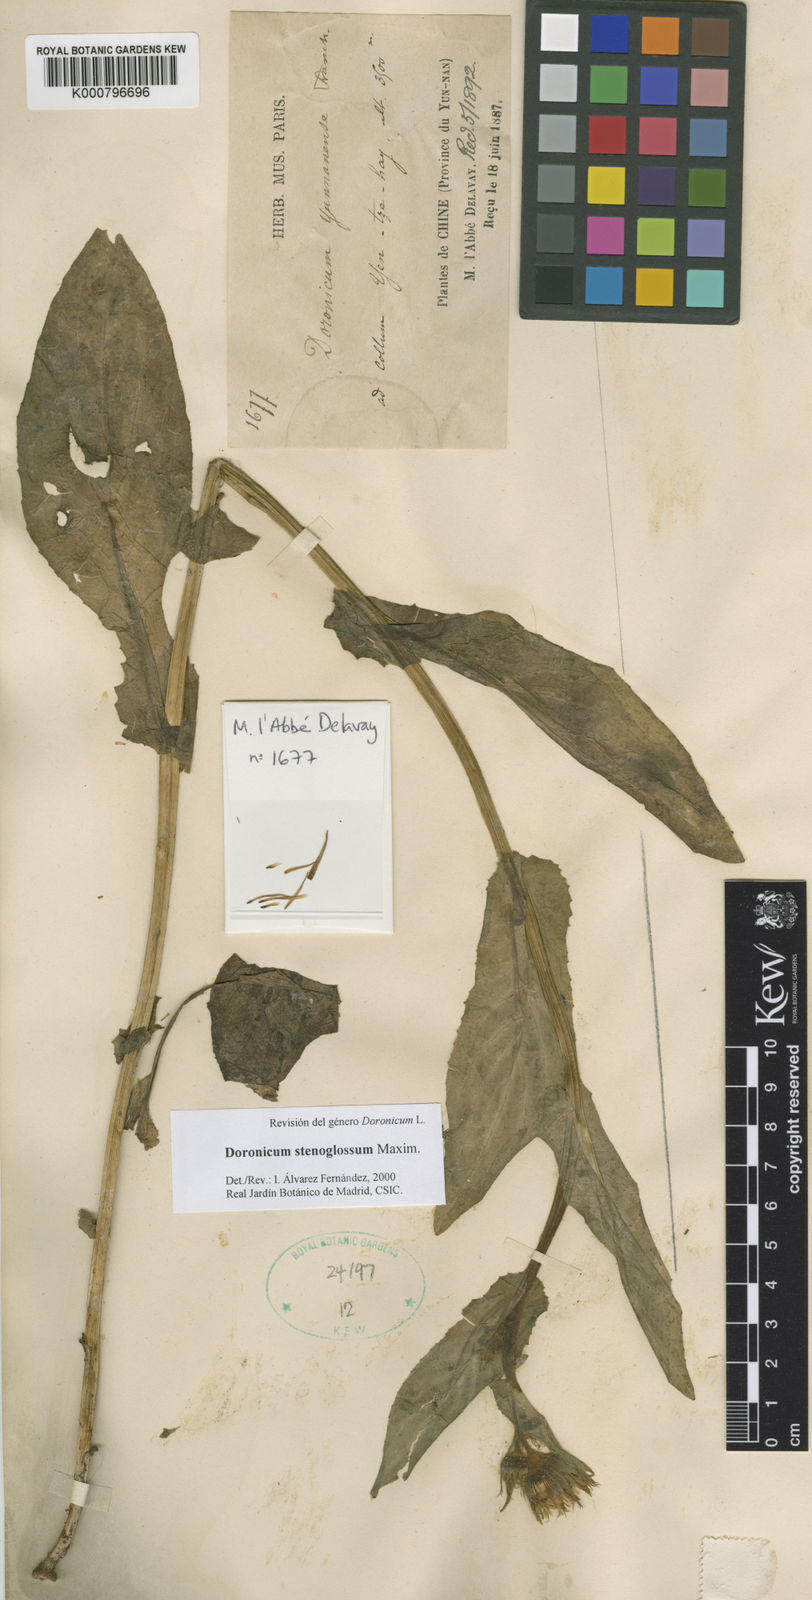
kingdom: Plantae
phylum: Tracheophyta
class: Magnoliopsida
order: Asterales
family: Asteraceae
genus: Doronicum
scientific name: Doronicum stenoglossum
